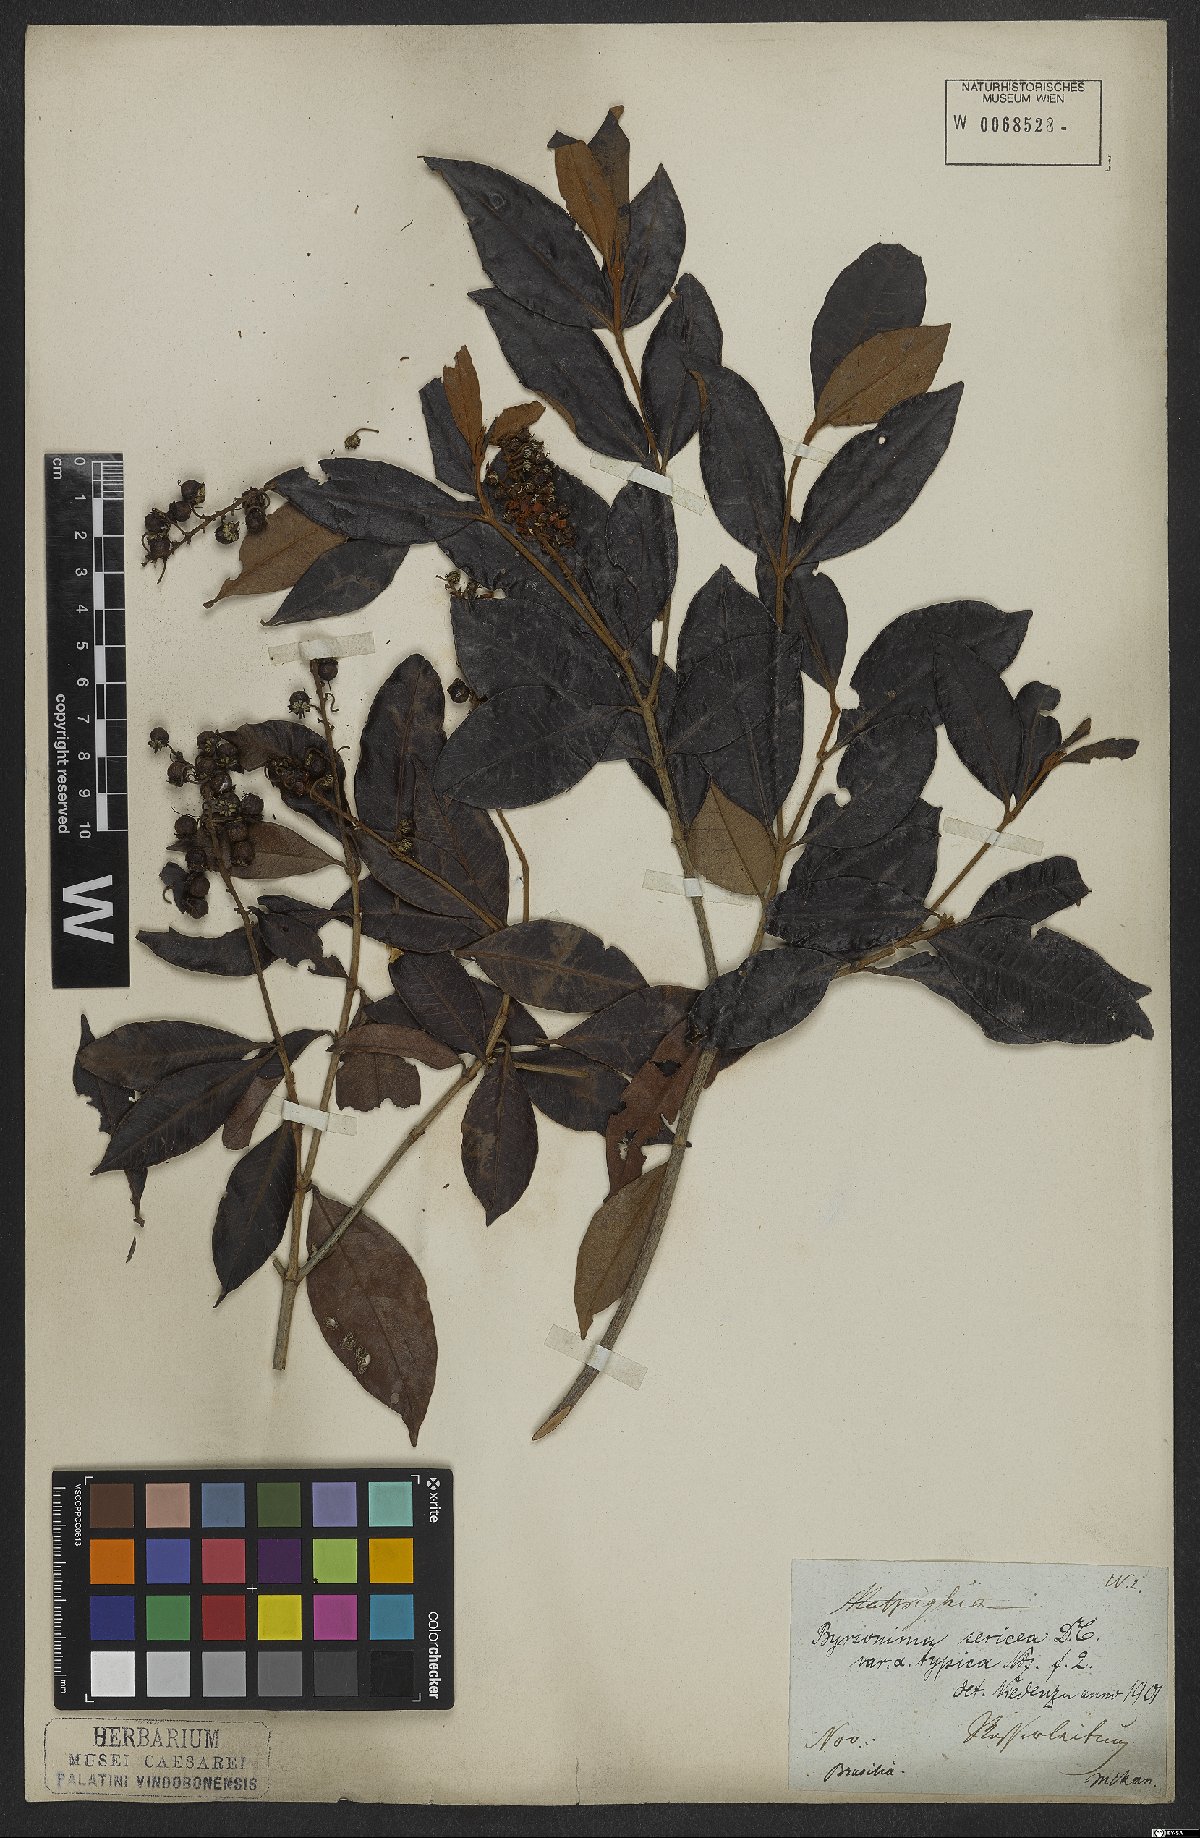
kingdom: Plantae
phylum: Tracheophyta
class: Magnoliopsida
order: Malpighiales
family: Malpighiaceae
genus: Byrsonima
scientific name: Byrsonima sericea
